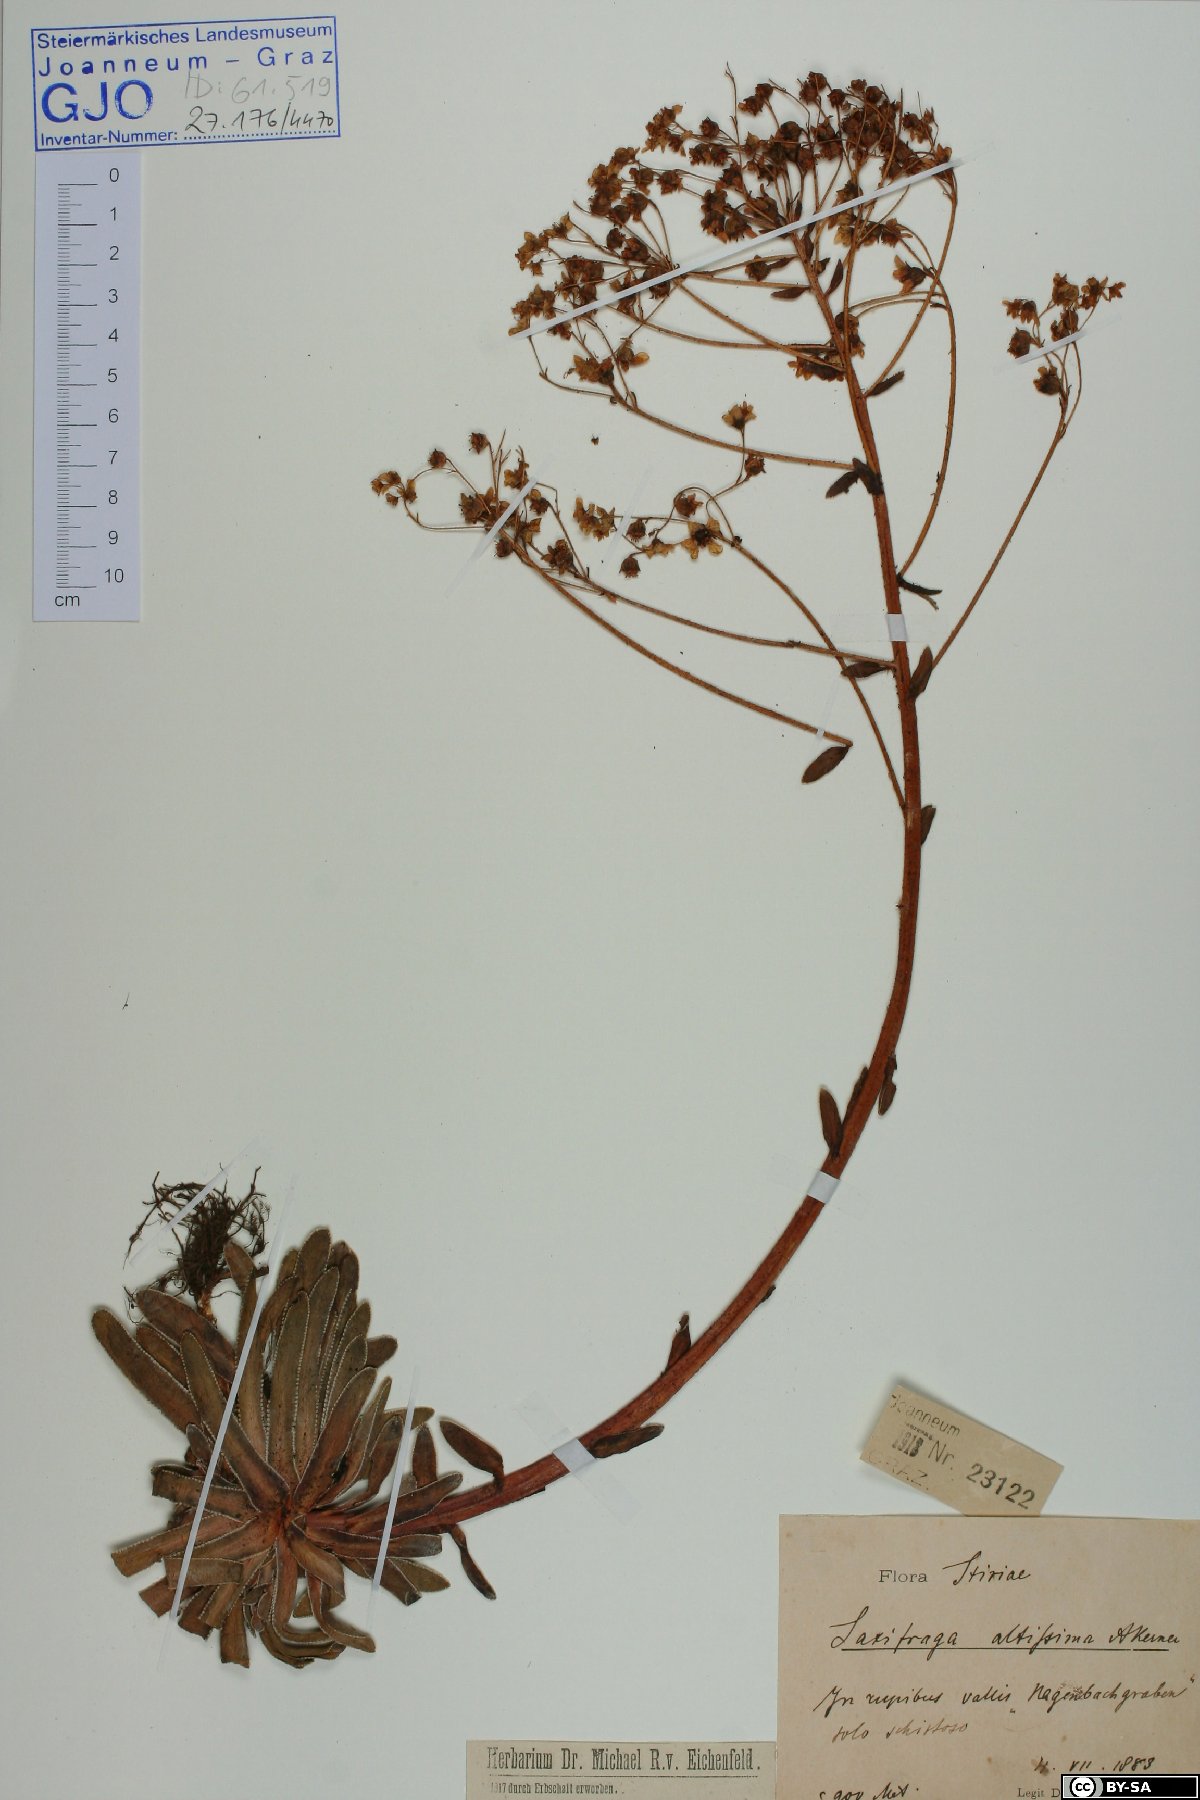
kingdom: Plantae
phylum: Tracheophyta
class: Magnoliopsida
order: Saxifragales
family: Saxifragaceae
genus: Saxifraga
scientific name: Saxifraga hostii
